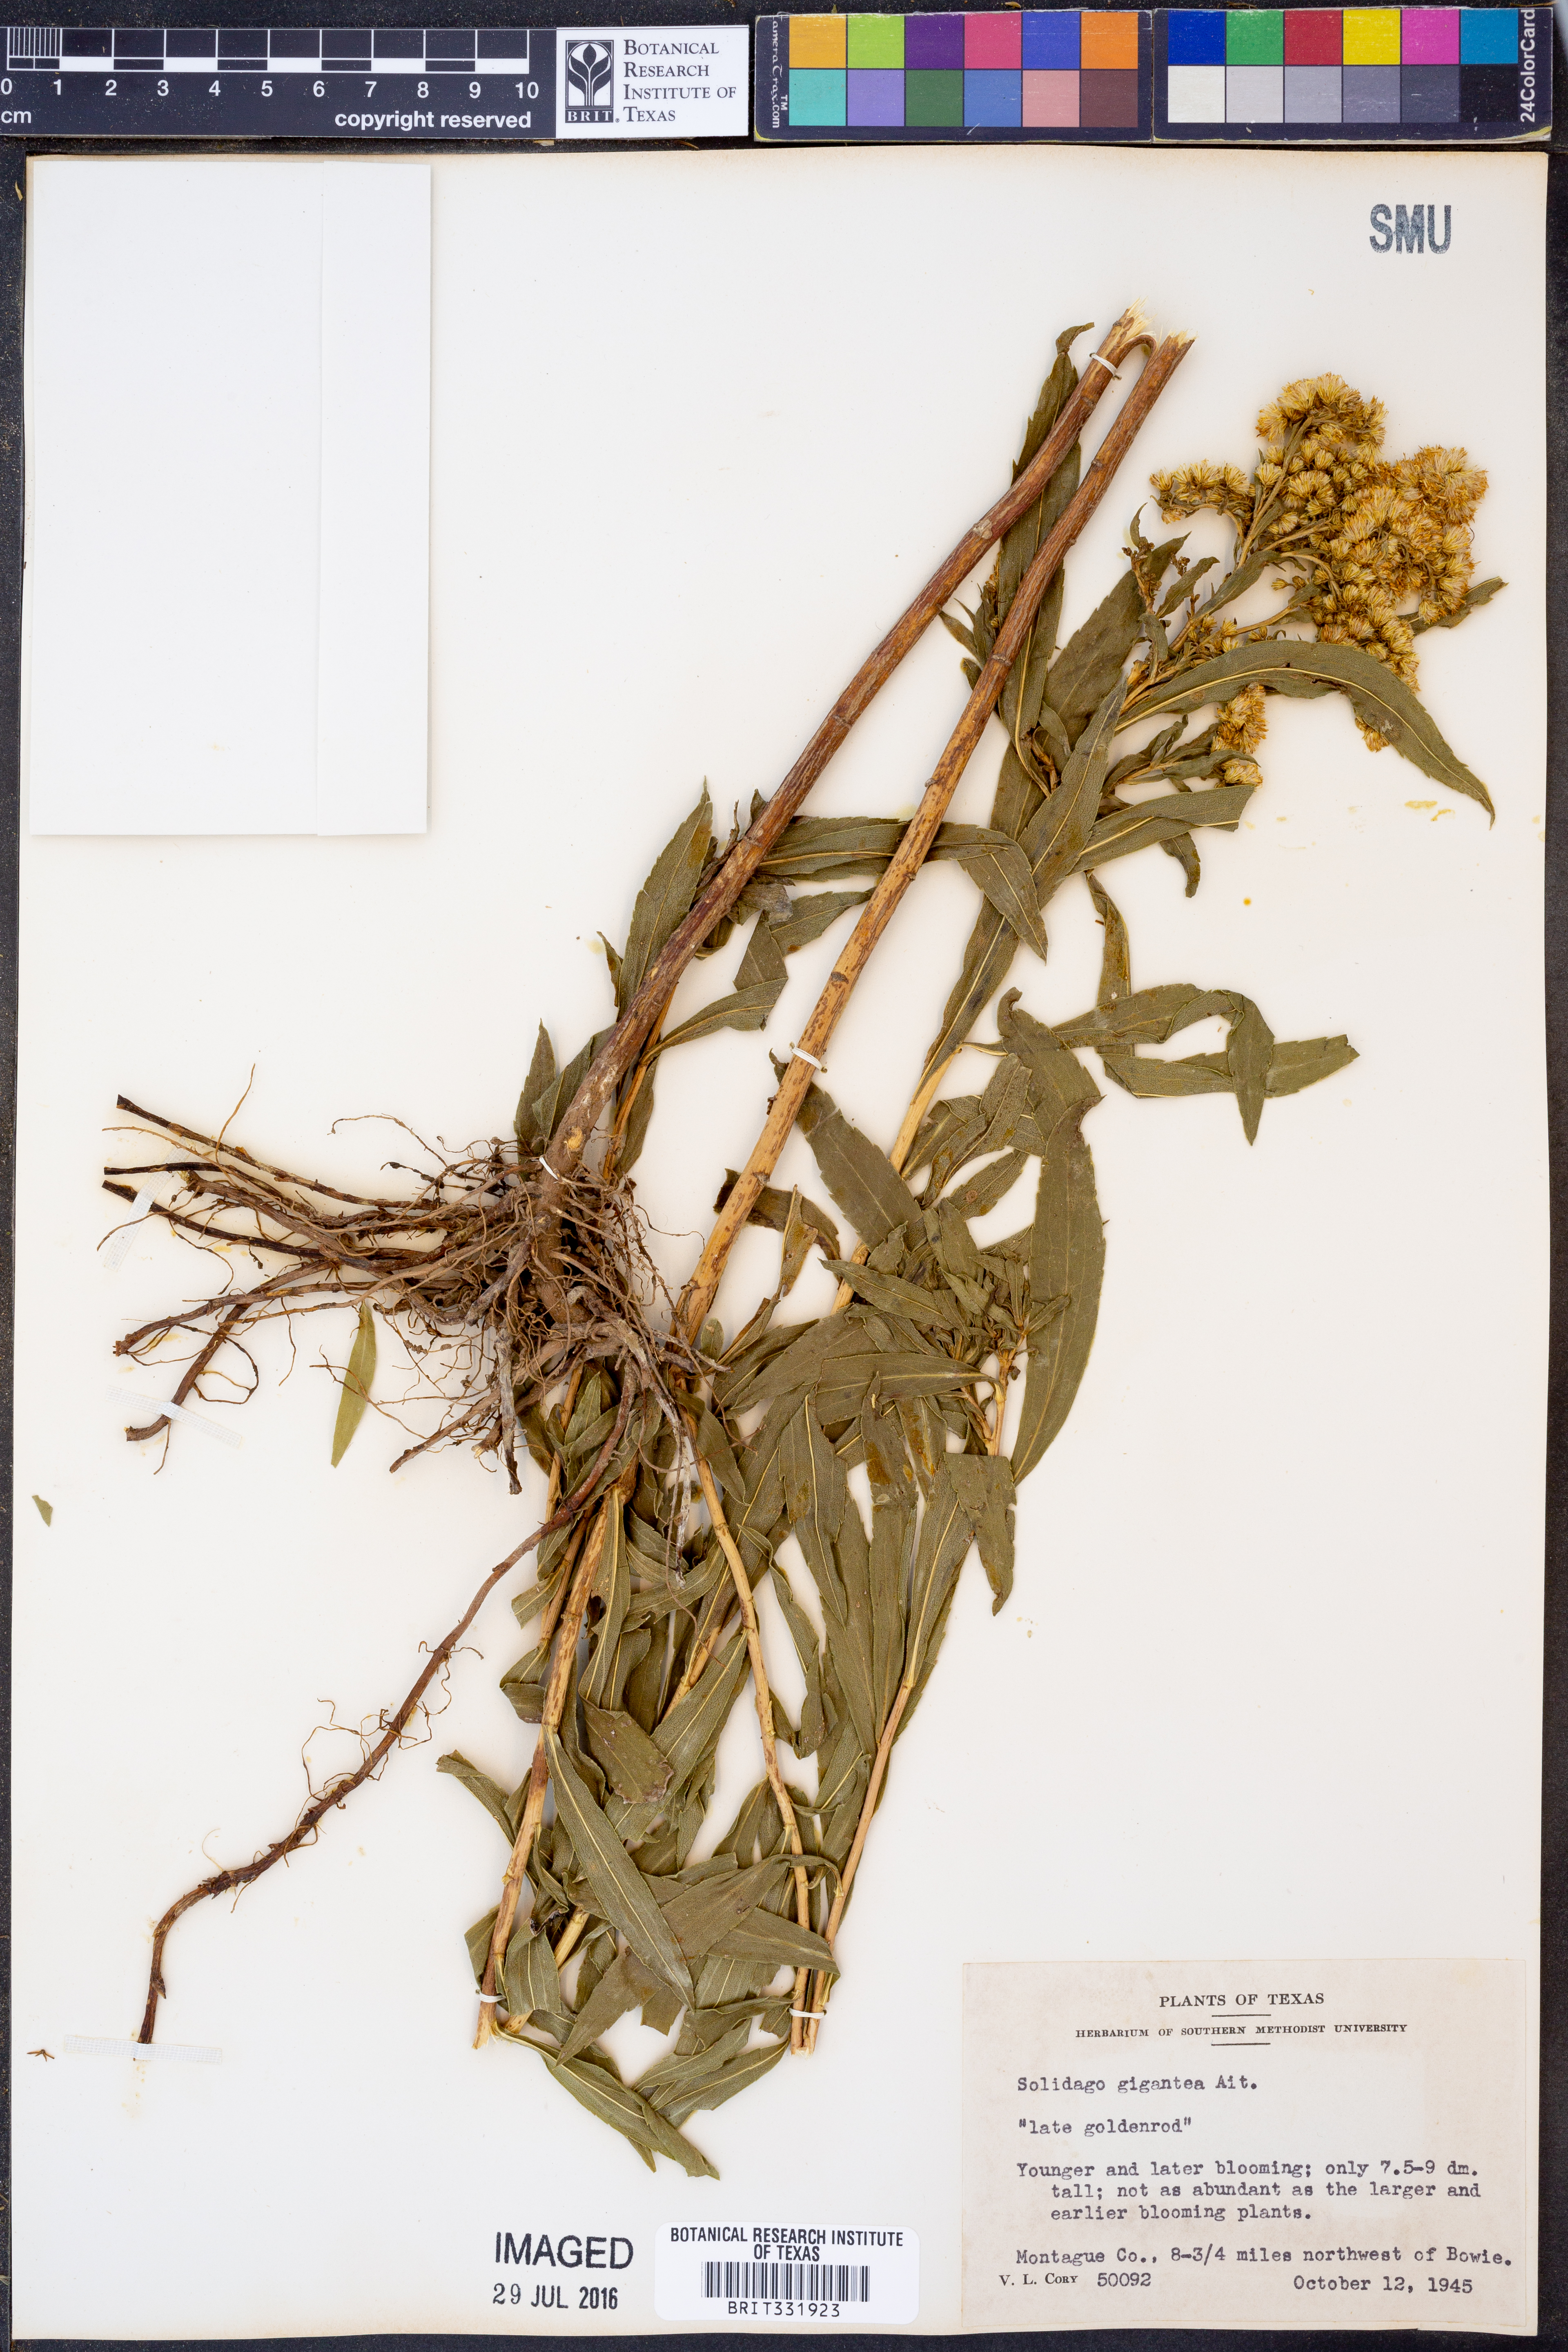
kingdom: Plantae
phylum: Tracheophyta
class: Magnoliopsida
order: Asterales
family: Asteraceae
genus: Solidago
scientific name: Solidago gigantea
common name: Giant goldenrod
